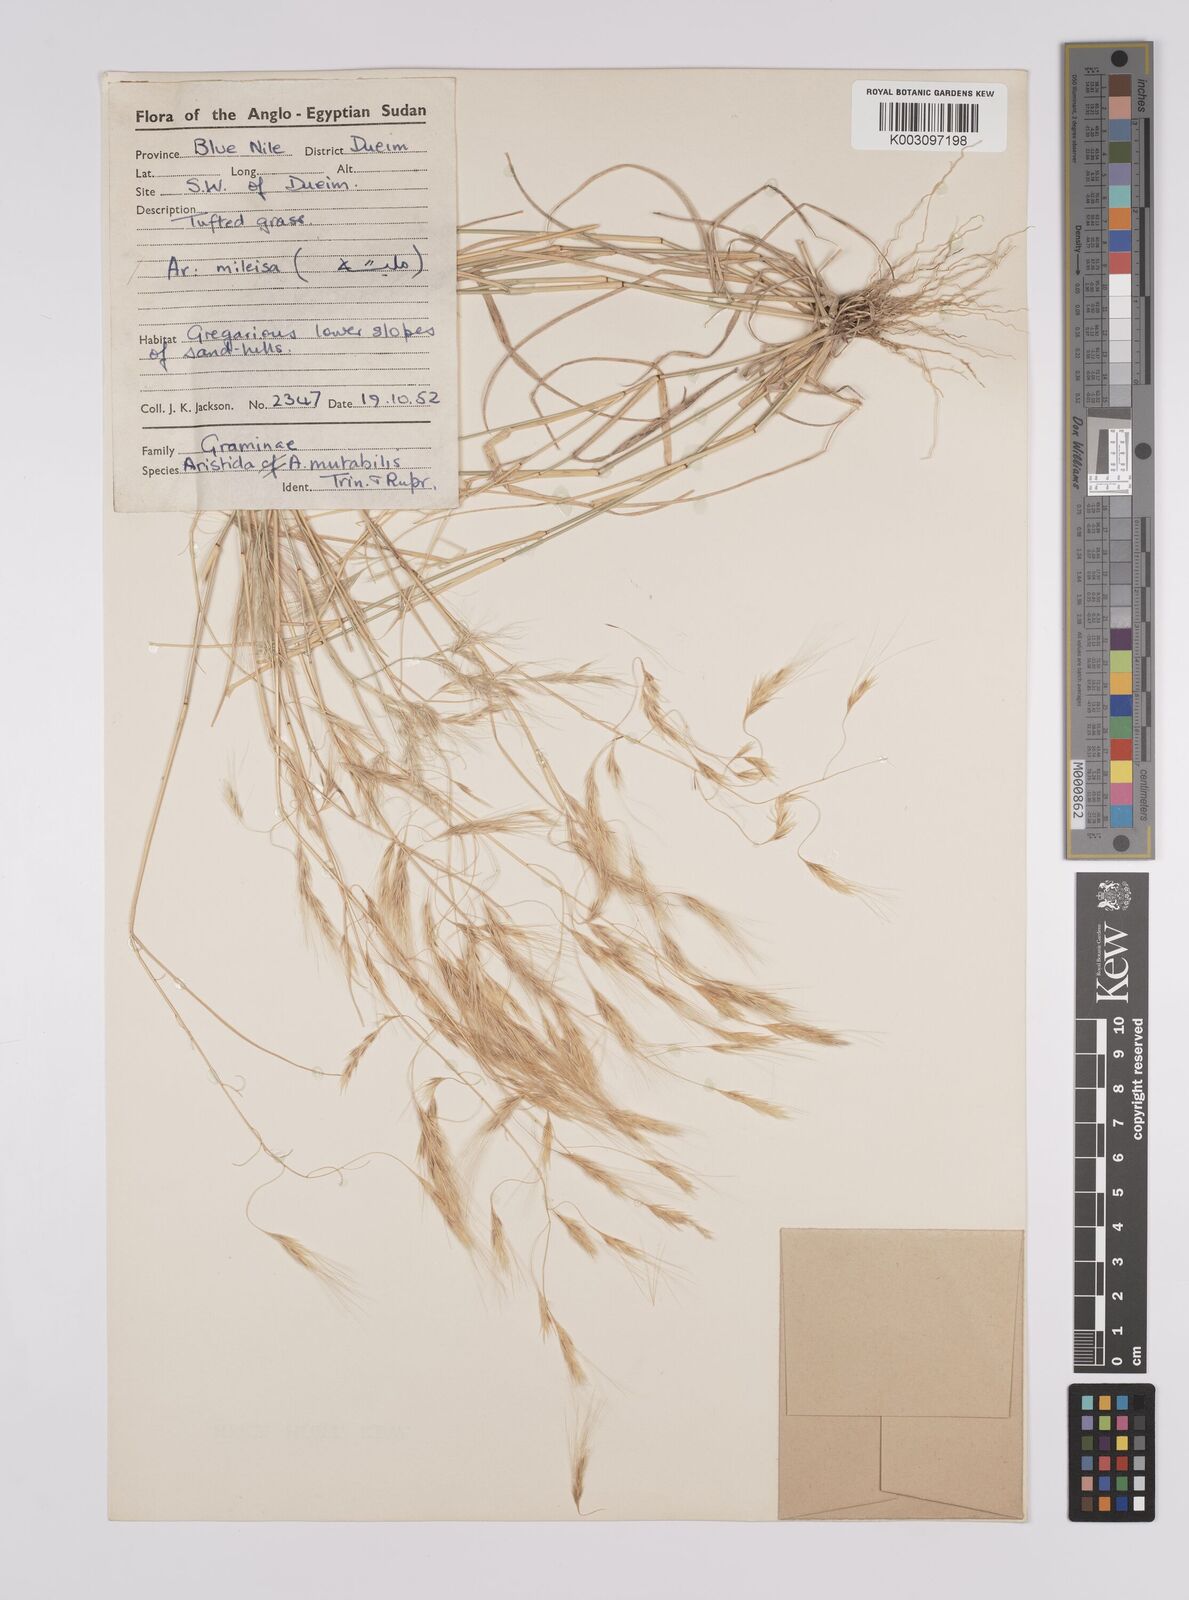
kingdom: Plantae
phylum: Tracheophyta
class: Liliopsida
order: Poales
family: Poaceae
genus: Aristida
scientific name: Aristida mutabilis
